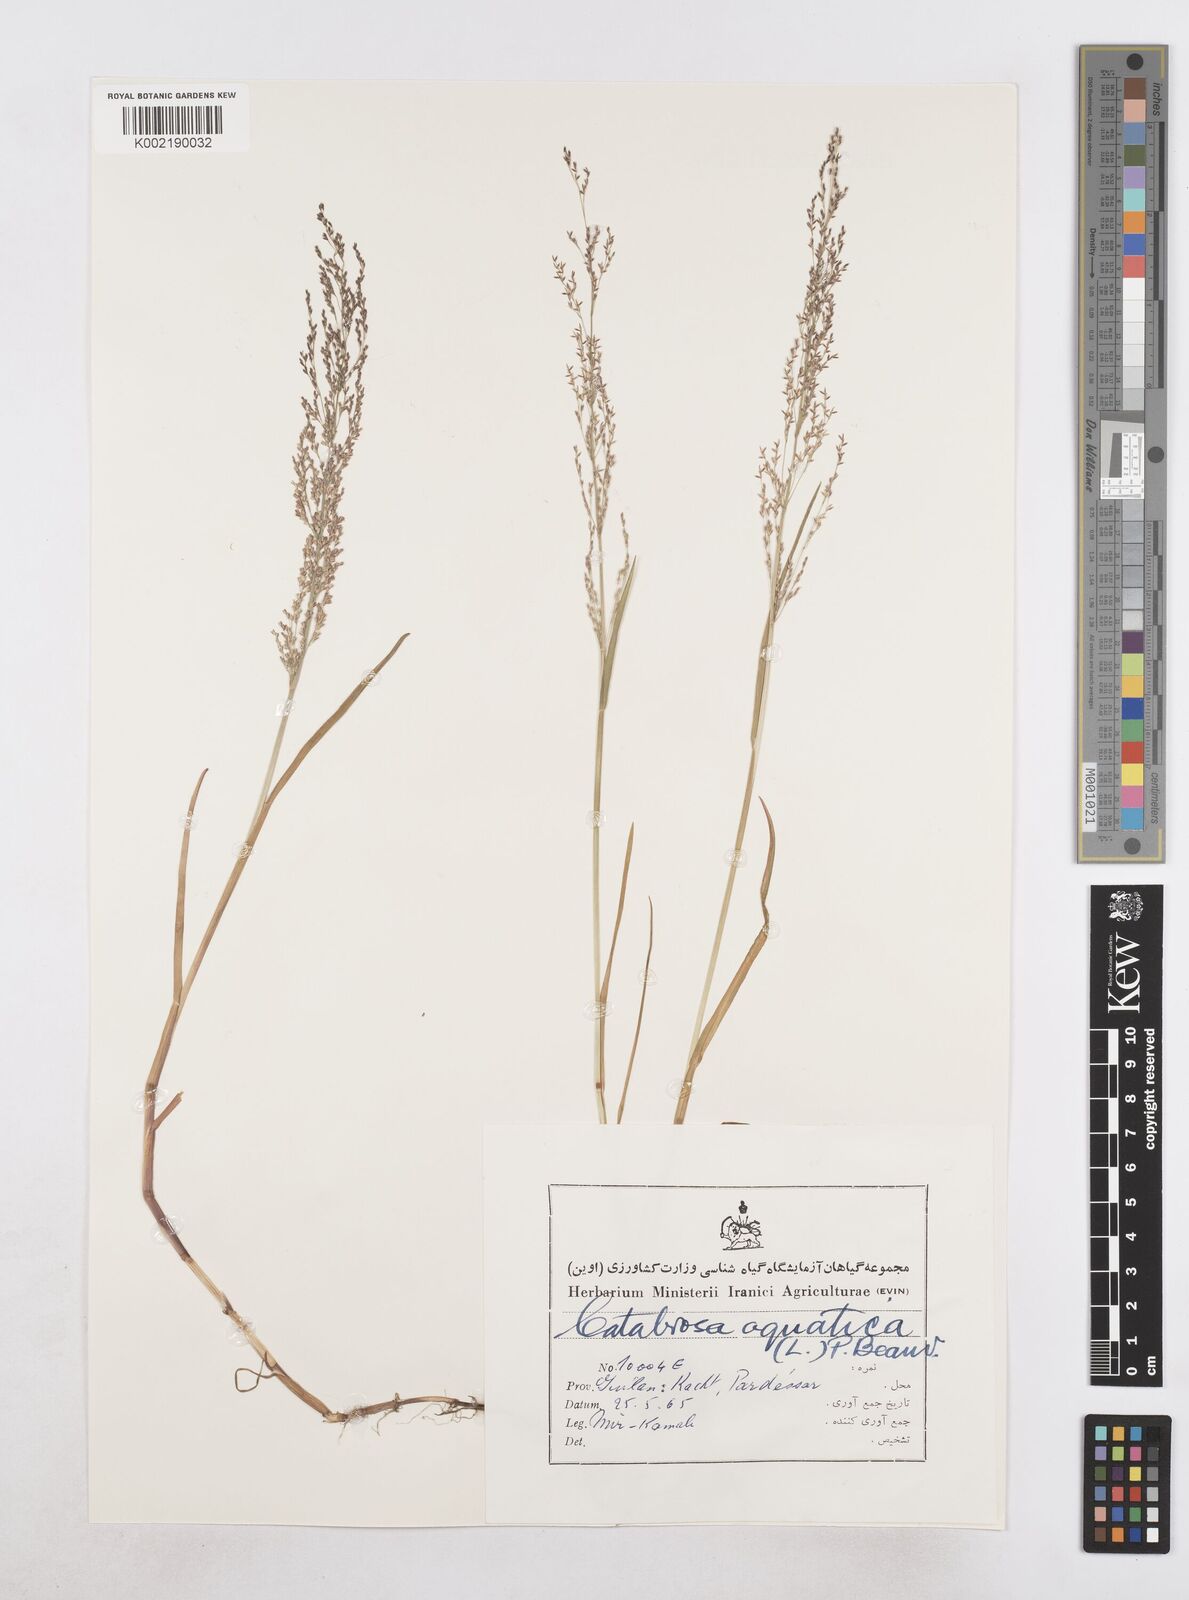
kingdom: Plantae
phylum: Tracheophyta
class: Liliopsida
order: Poales
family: Poaceae
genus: Catabrosa
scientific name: Catabrosa aquatica
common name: Whorl-grass
